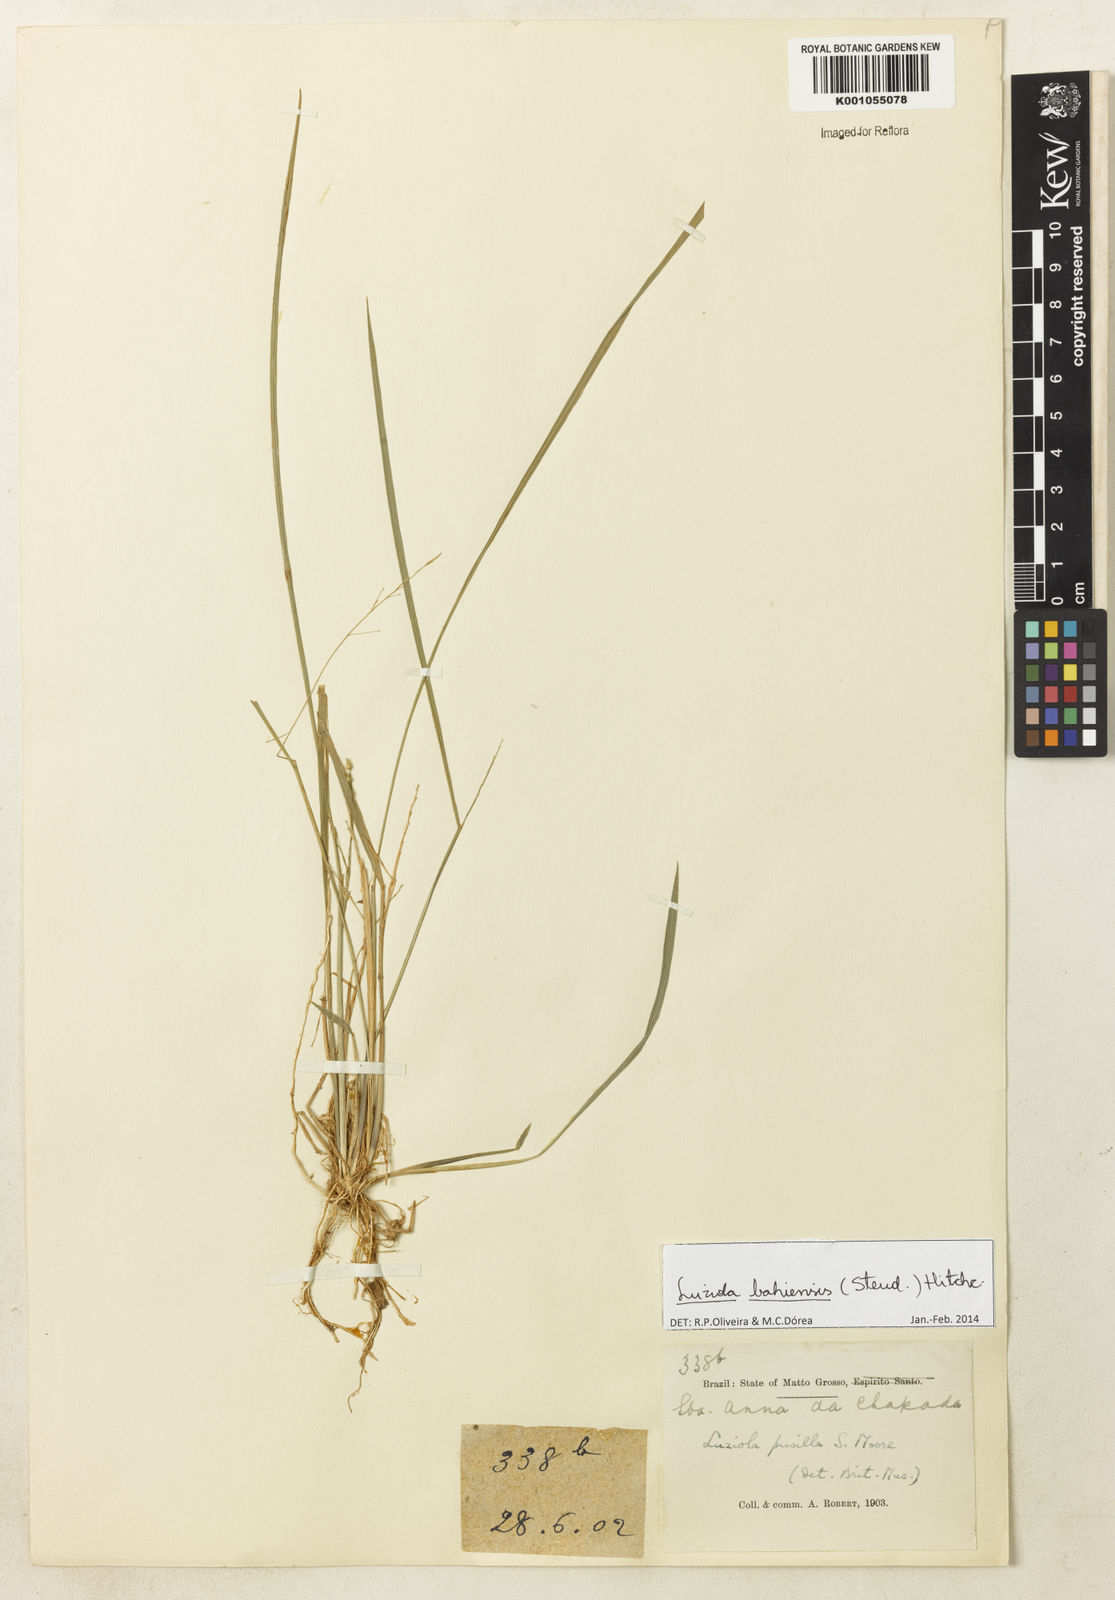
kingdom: Plantae
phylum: Tracheophyta
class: Liliopsida
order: Poales
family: Poaceae
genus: Luziola
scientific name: Luziola bahiensis
